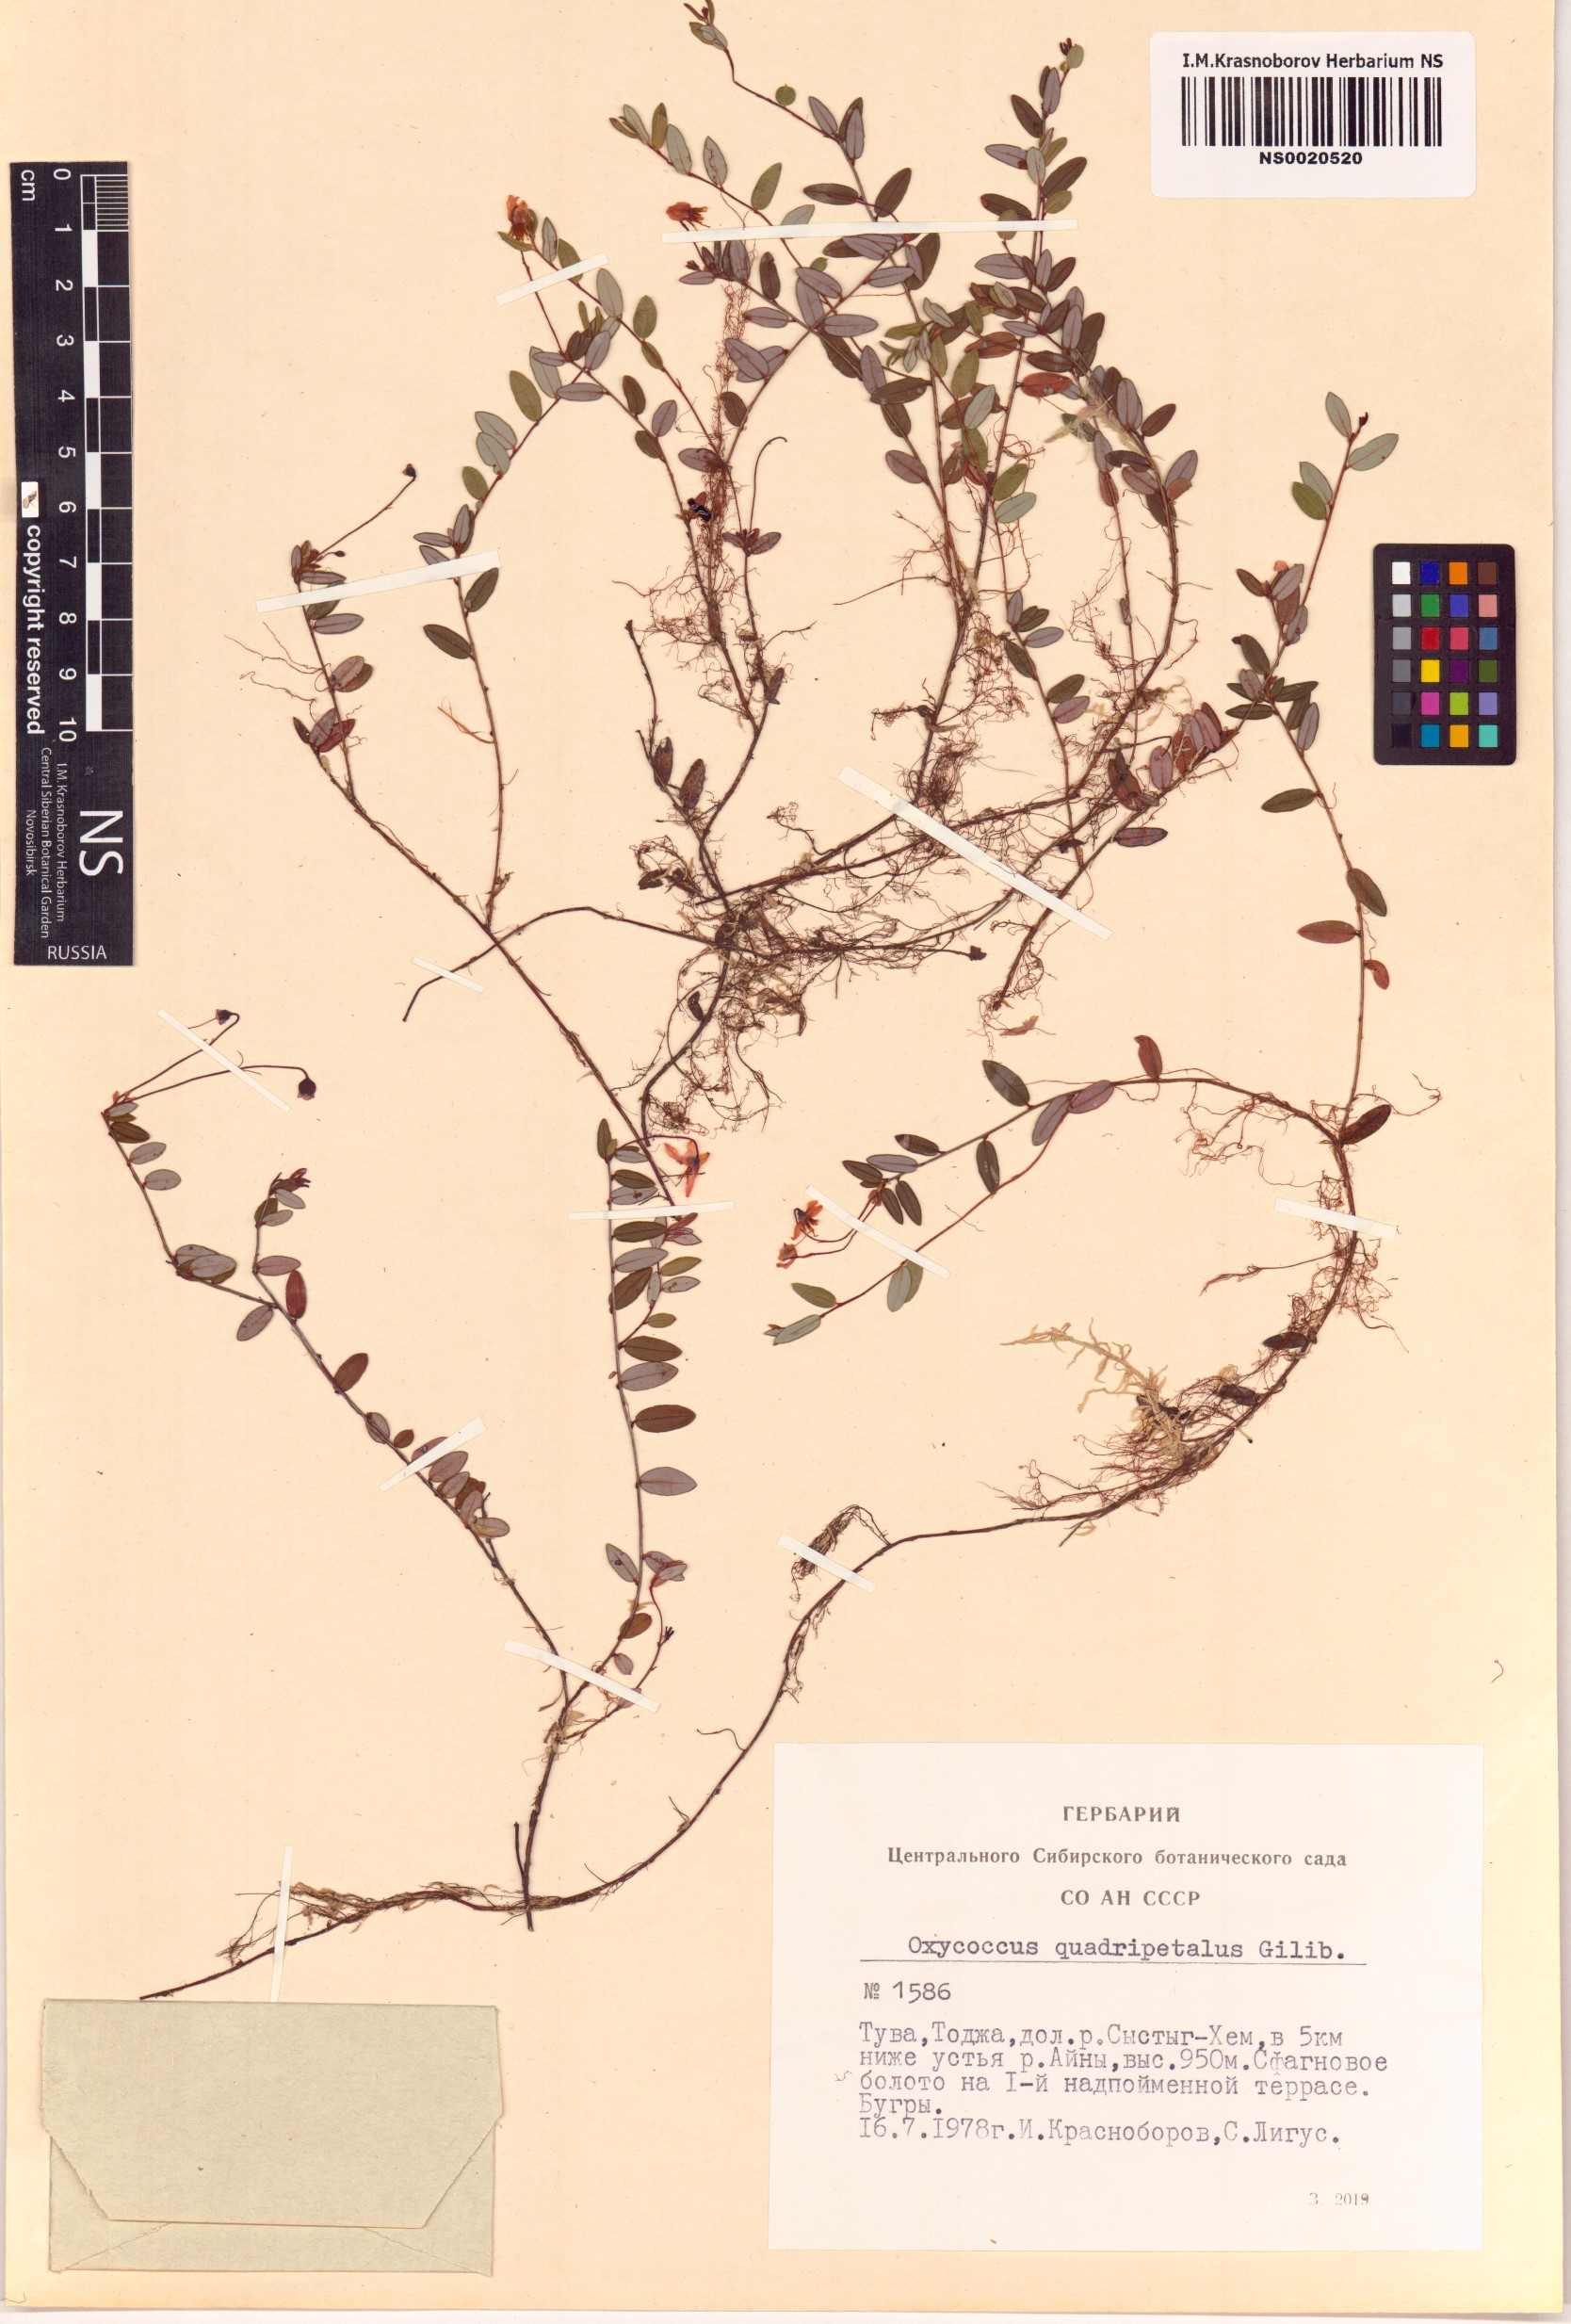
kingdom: Plantae
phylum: Tracheophyta
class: Magnoliopsida
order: Ericales
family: Ericaceae
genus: Vaccinium
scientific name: Vaccinium oxycoccos
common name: Cranberry
